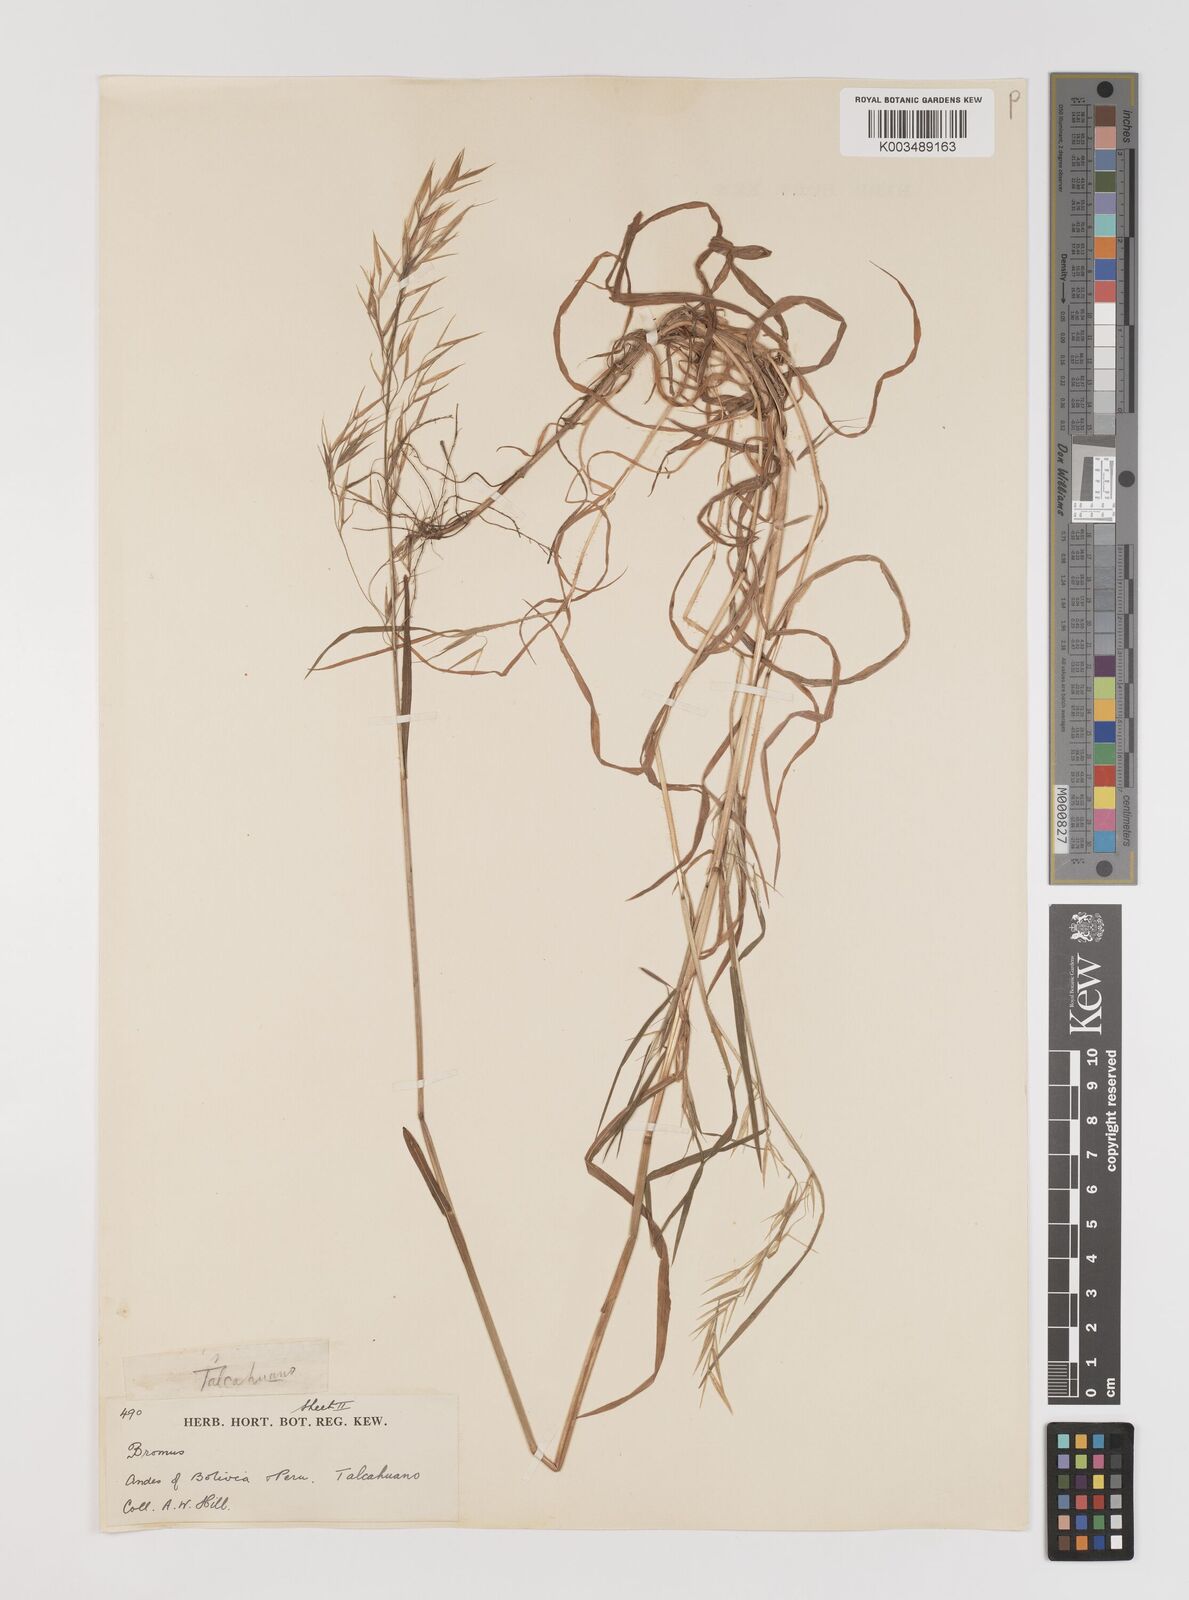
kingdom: Plantae
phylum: Tracheophyta
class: Liliopsida
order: Poales
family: Poaceae
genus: Bromus
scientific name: Bromus berteroanus
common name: Chilean chess
